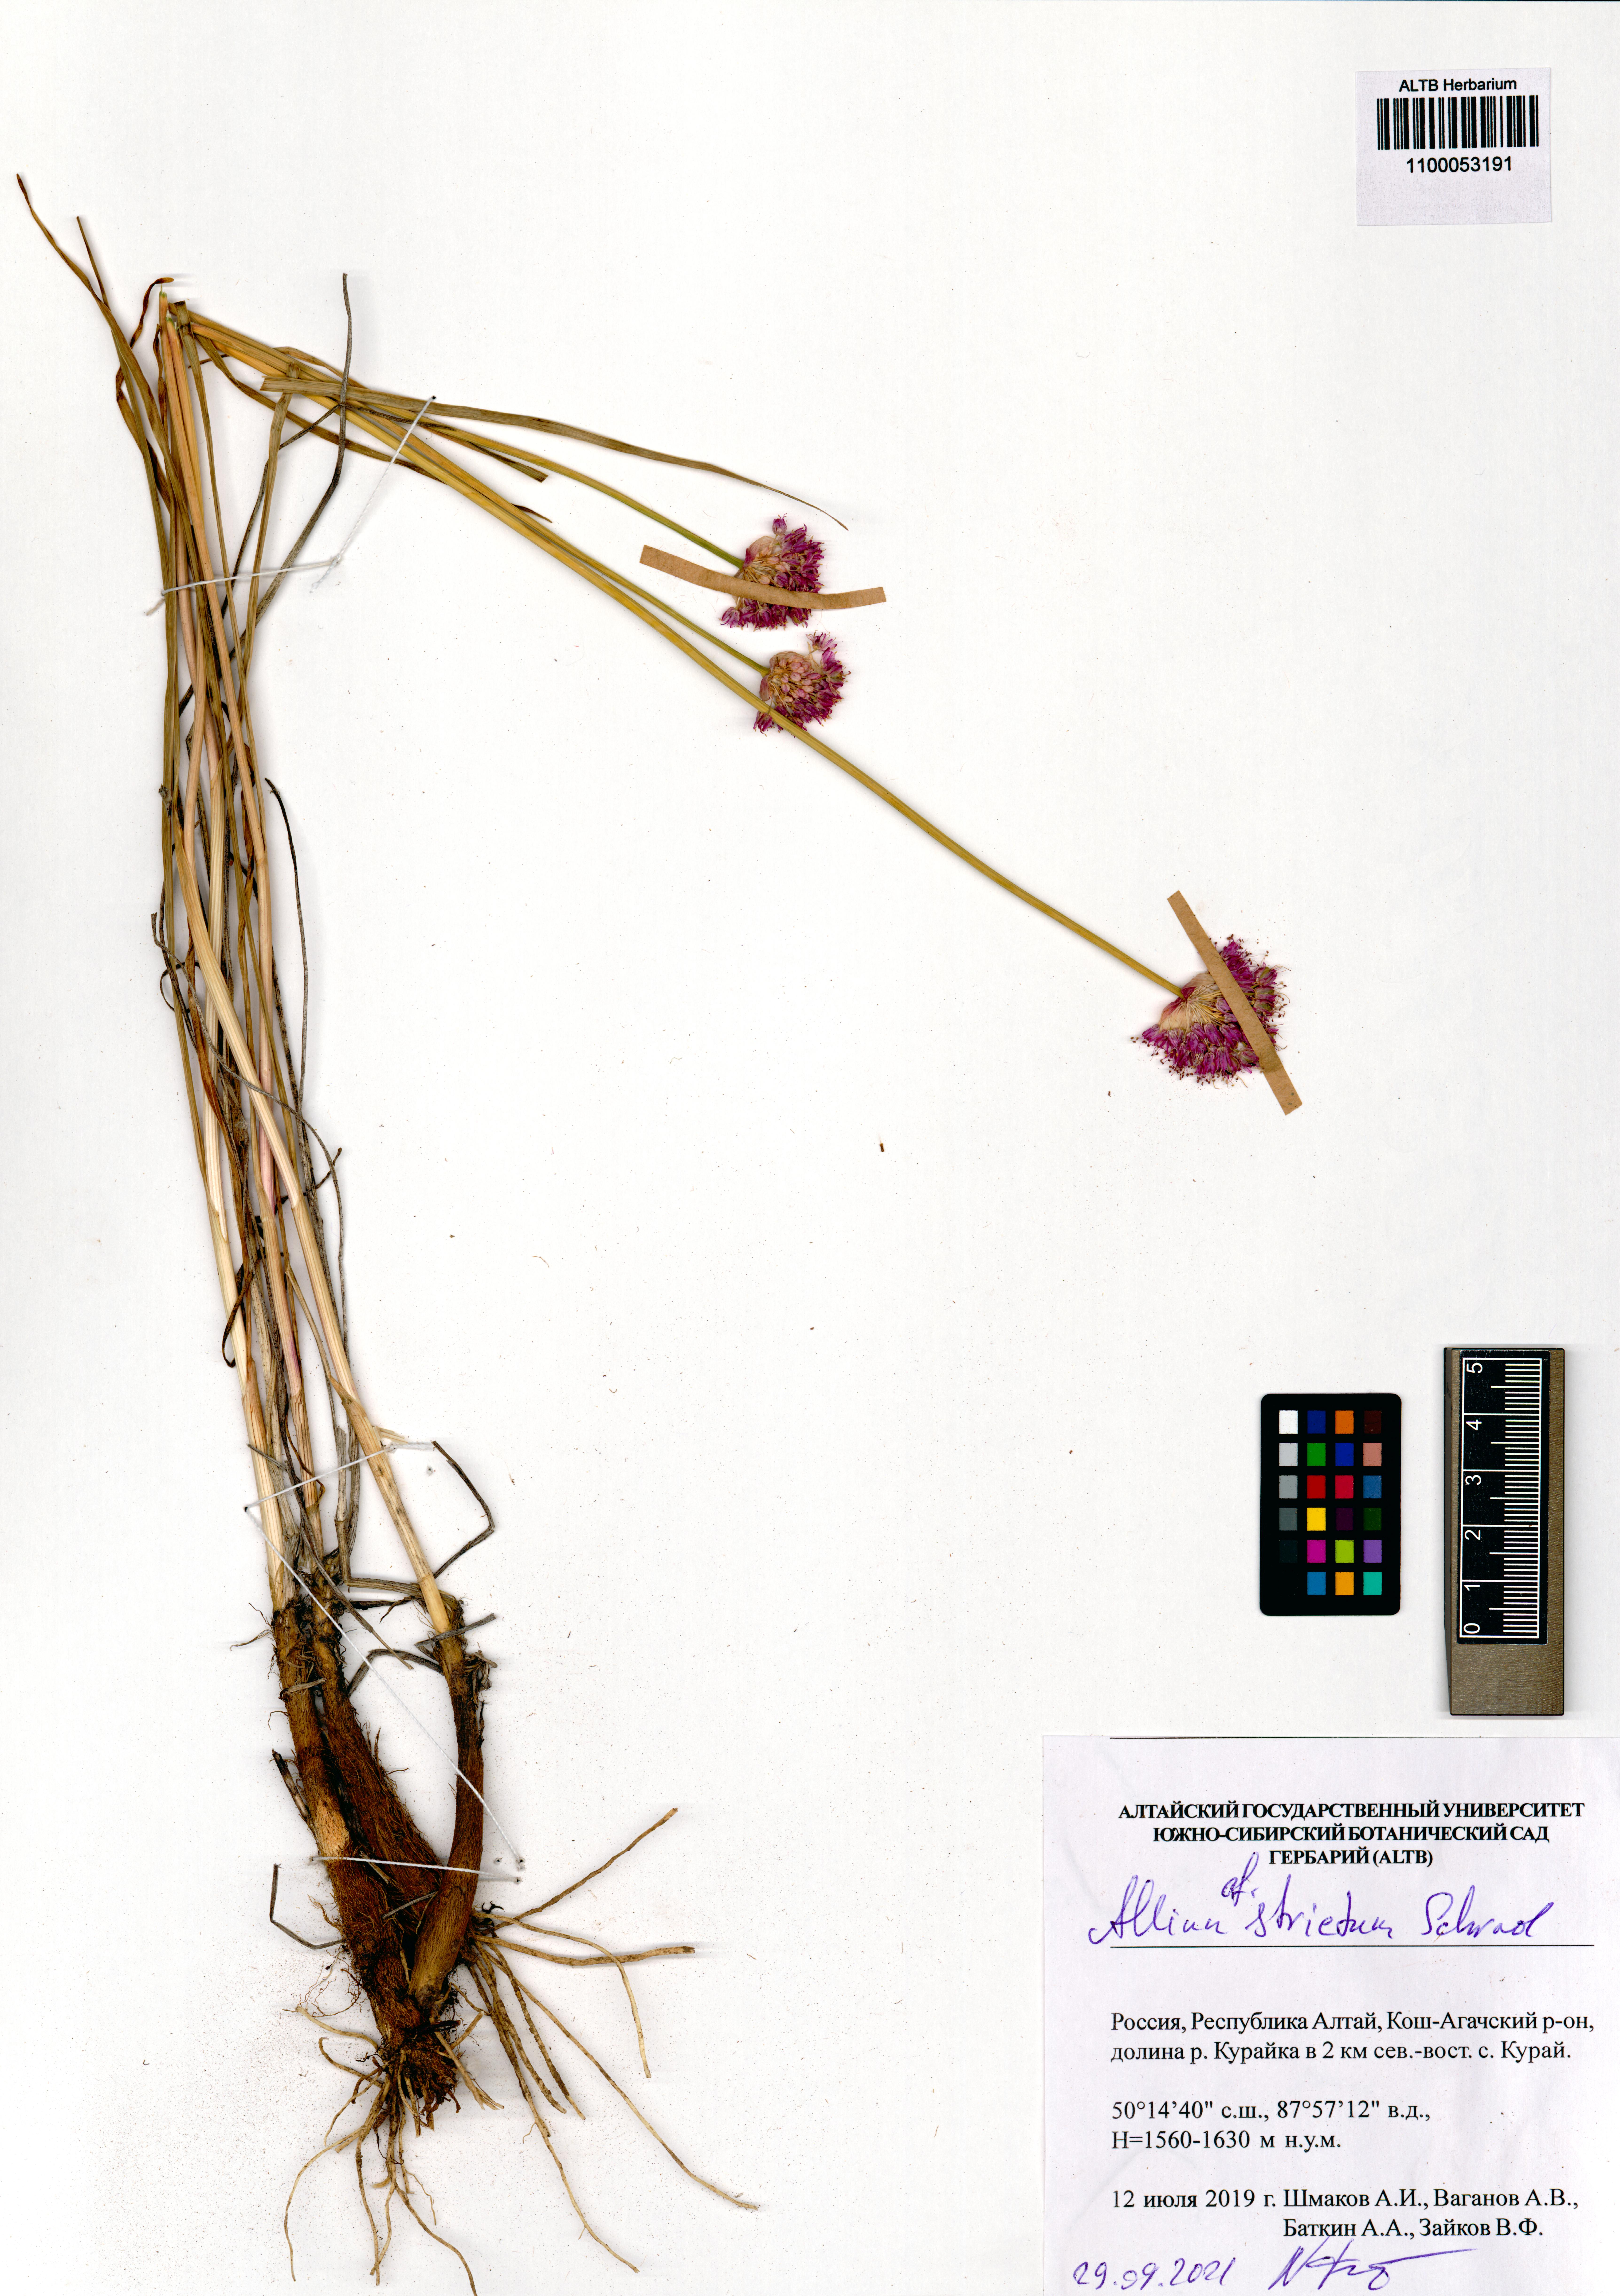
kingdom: Plantae
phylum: Tracheophyta
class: Liliopsida
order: Asparagales
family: Amaryllidaceae
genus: Allium
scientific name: Allium strictum
